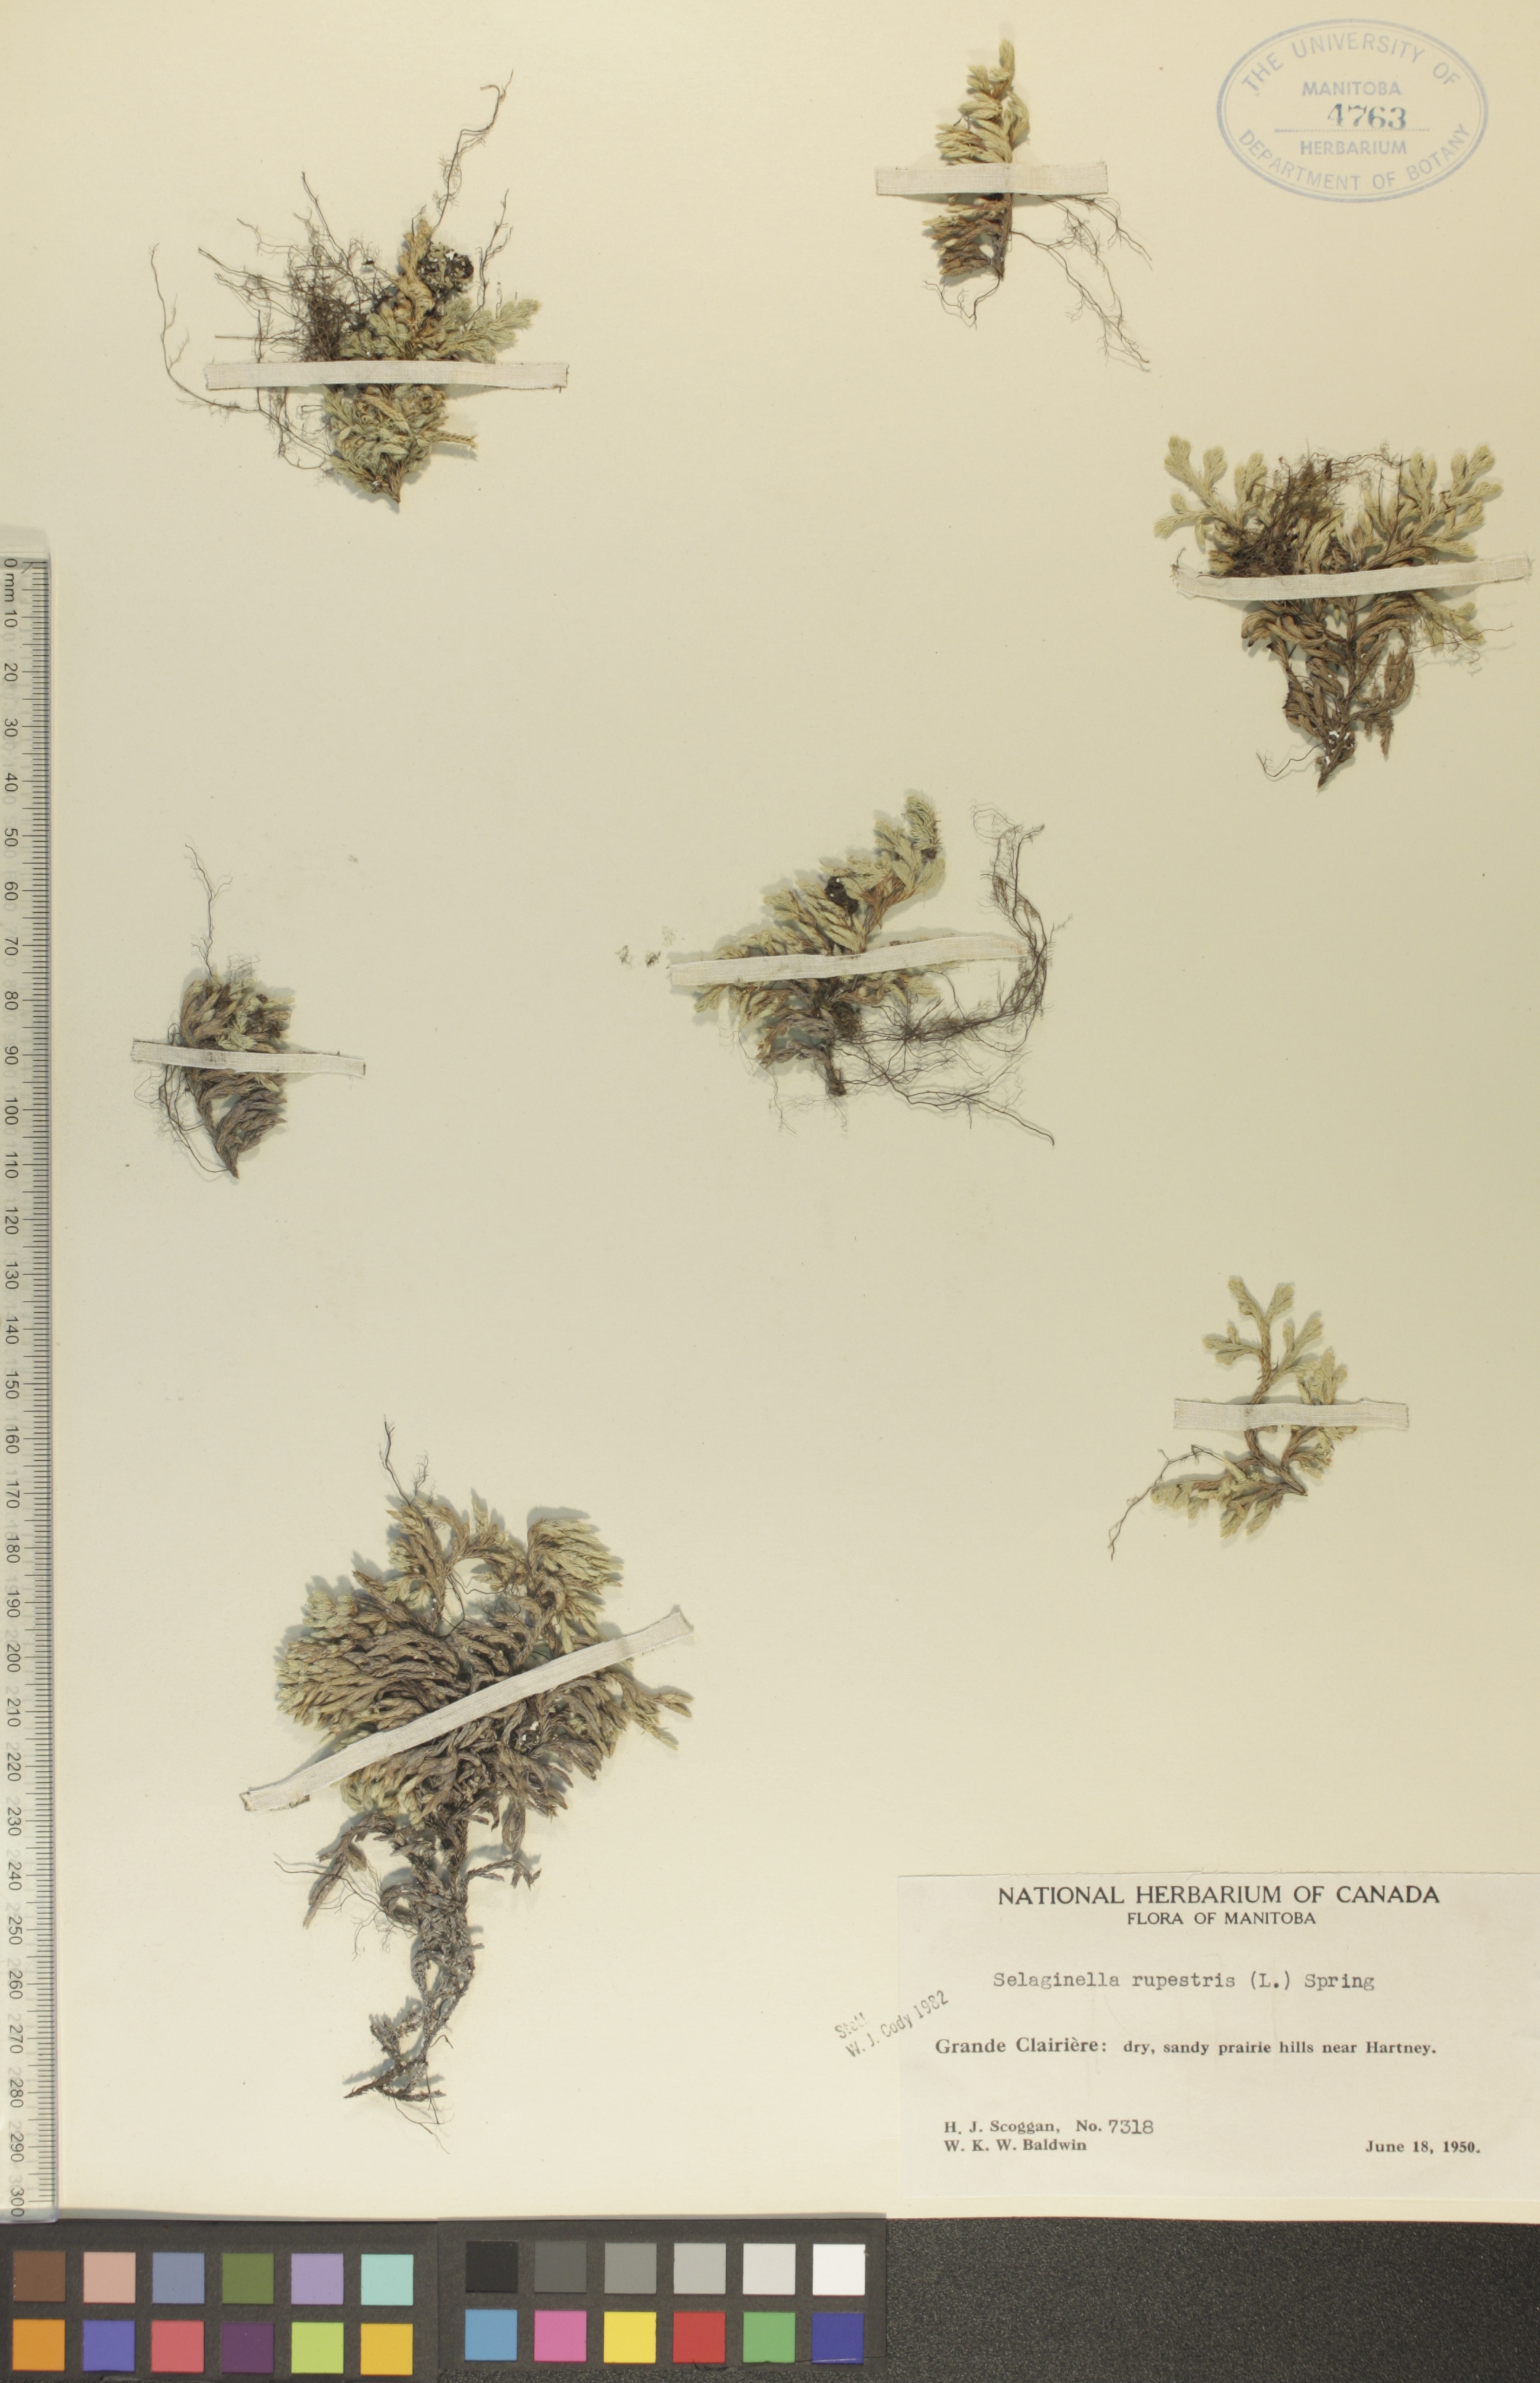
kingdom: Plantae
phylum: Tracheophyta
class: Lycopodiopsida
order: Selaginellales
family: Selaginellaceae
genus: Selaginella
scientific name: Selaginella densa
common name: Mountain spike-moss
